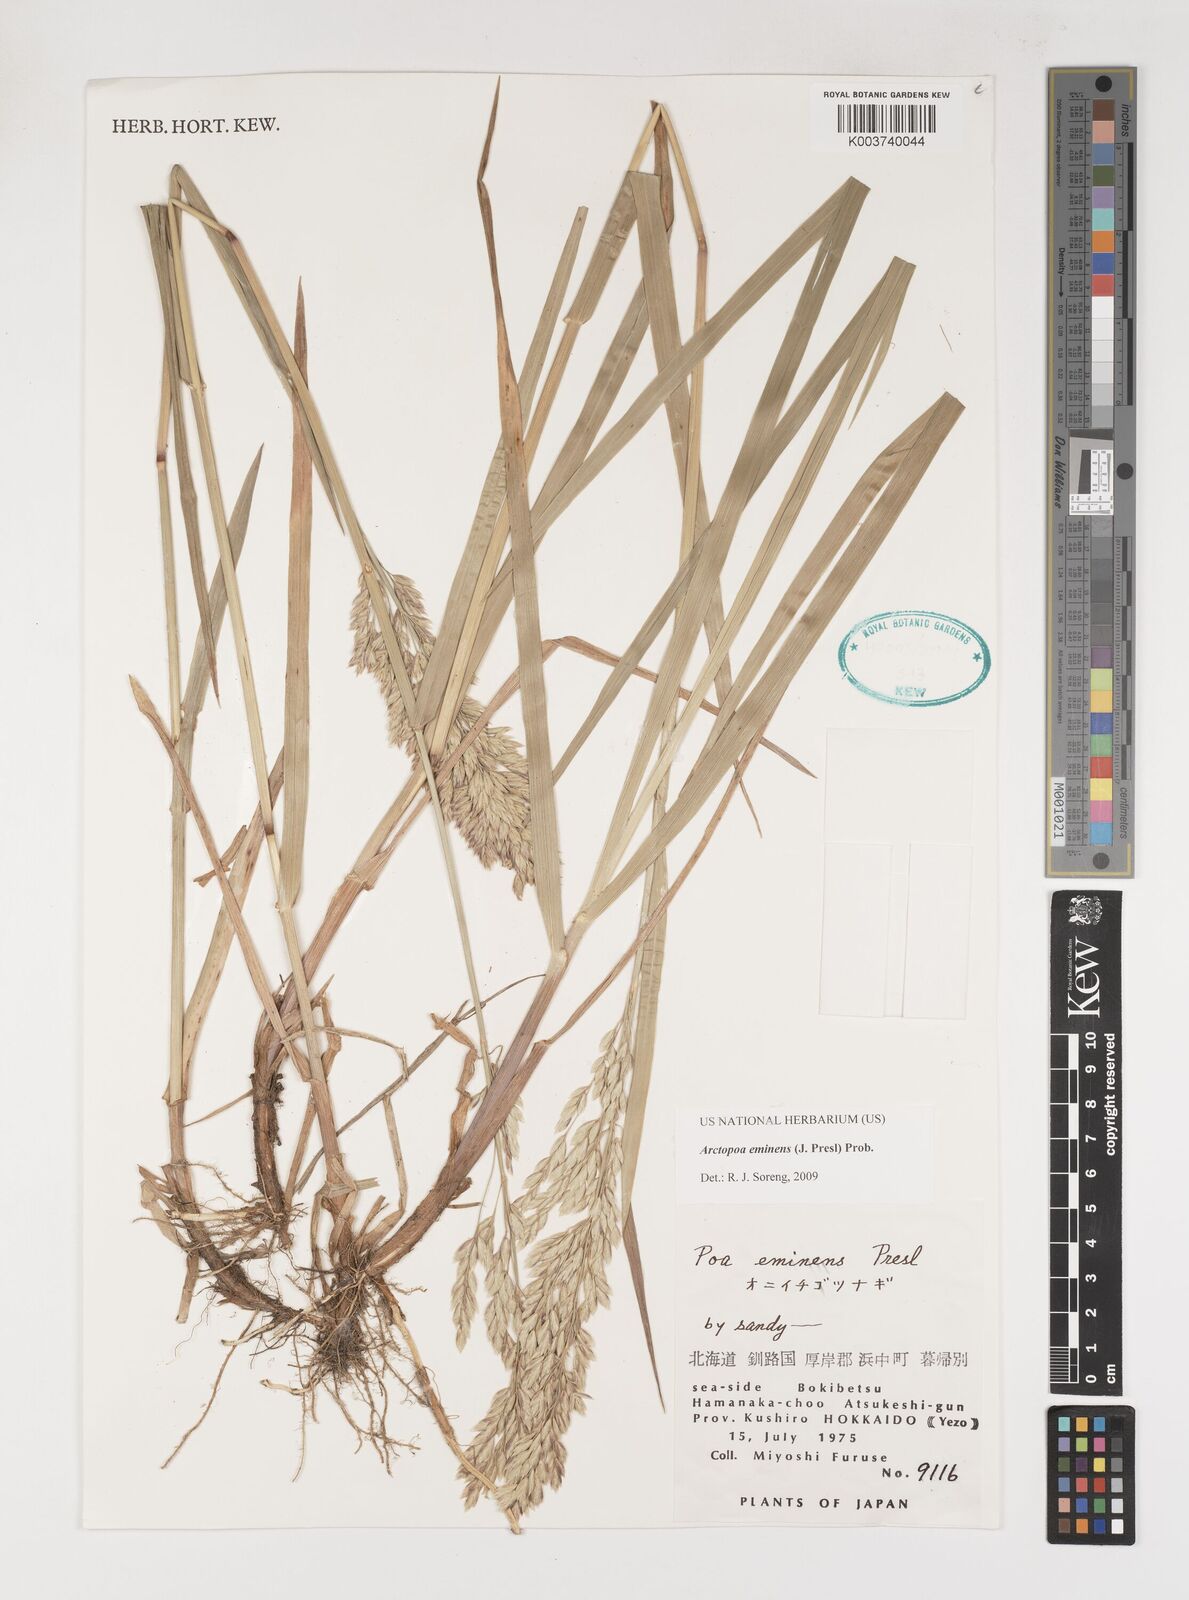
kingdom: Plantae
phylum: Tracheophyta
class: Liliopsida
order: Poales
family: Poaceae
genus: Arctopoa
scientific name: Arctopoa eminens
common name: Eminent bluegrass
